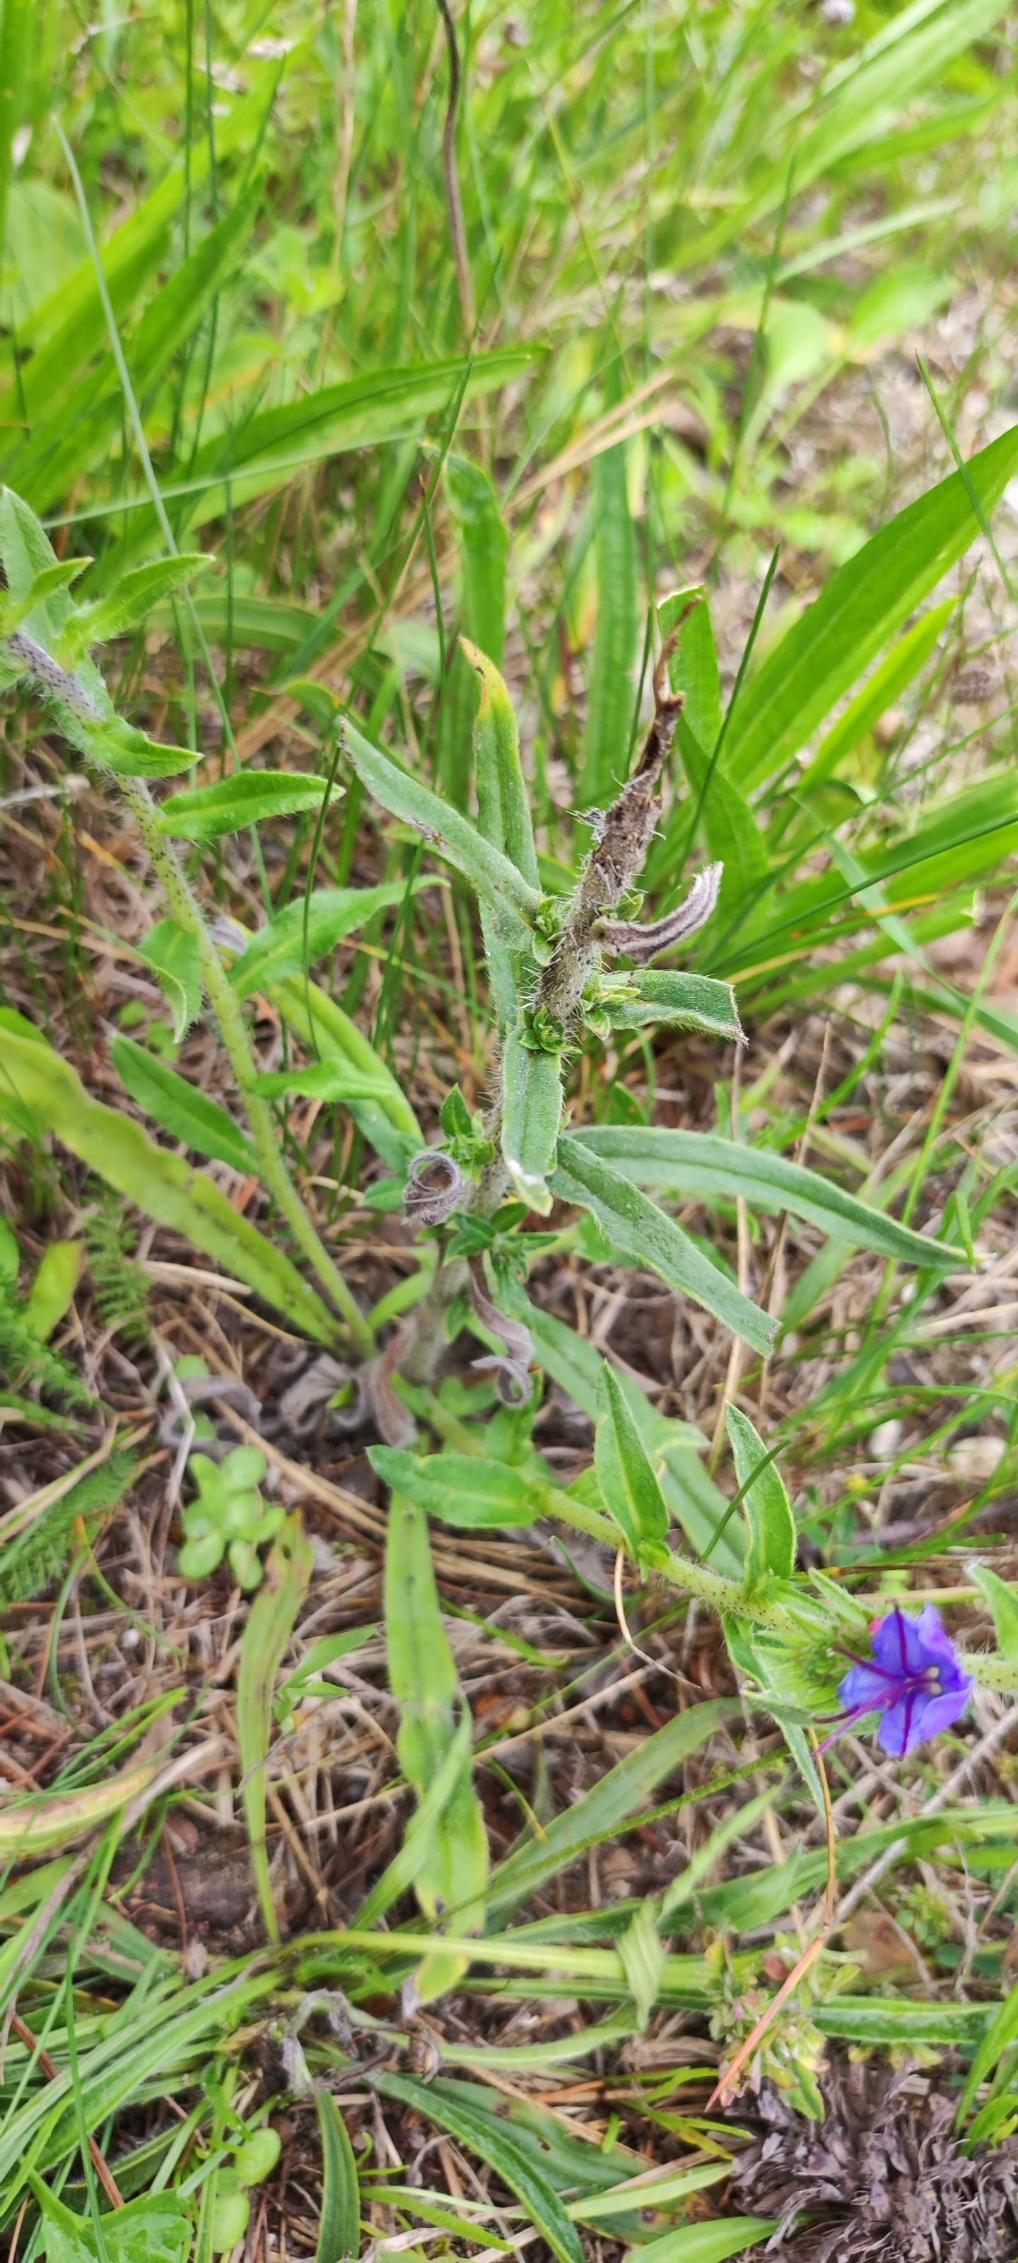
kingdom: Plantae
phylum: Tracheophyta
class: Magnoliopsida
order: Boraginales
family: Boraginaceae
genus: Echium
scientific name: Echium vulgare
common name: Slangehoved
